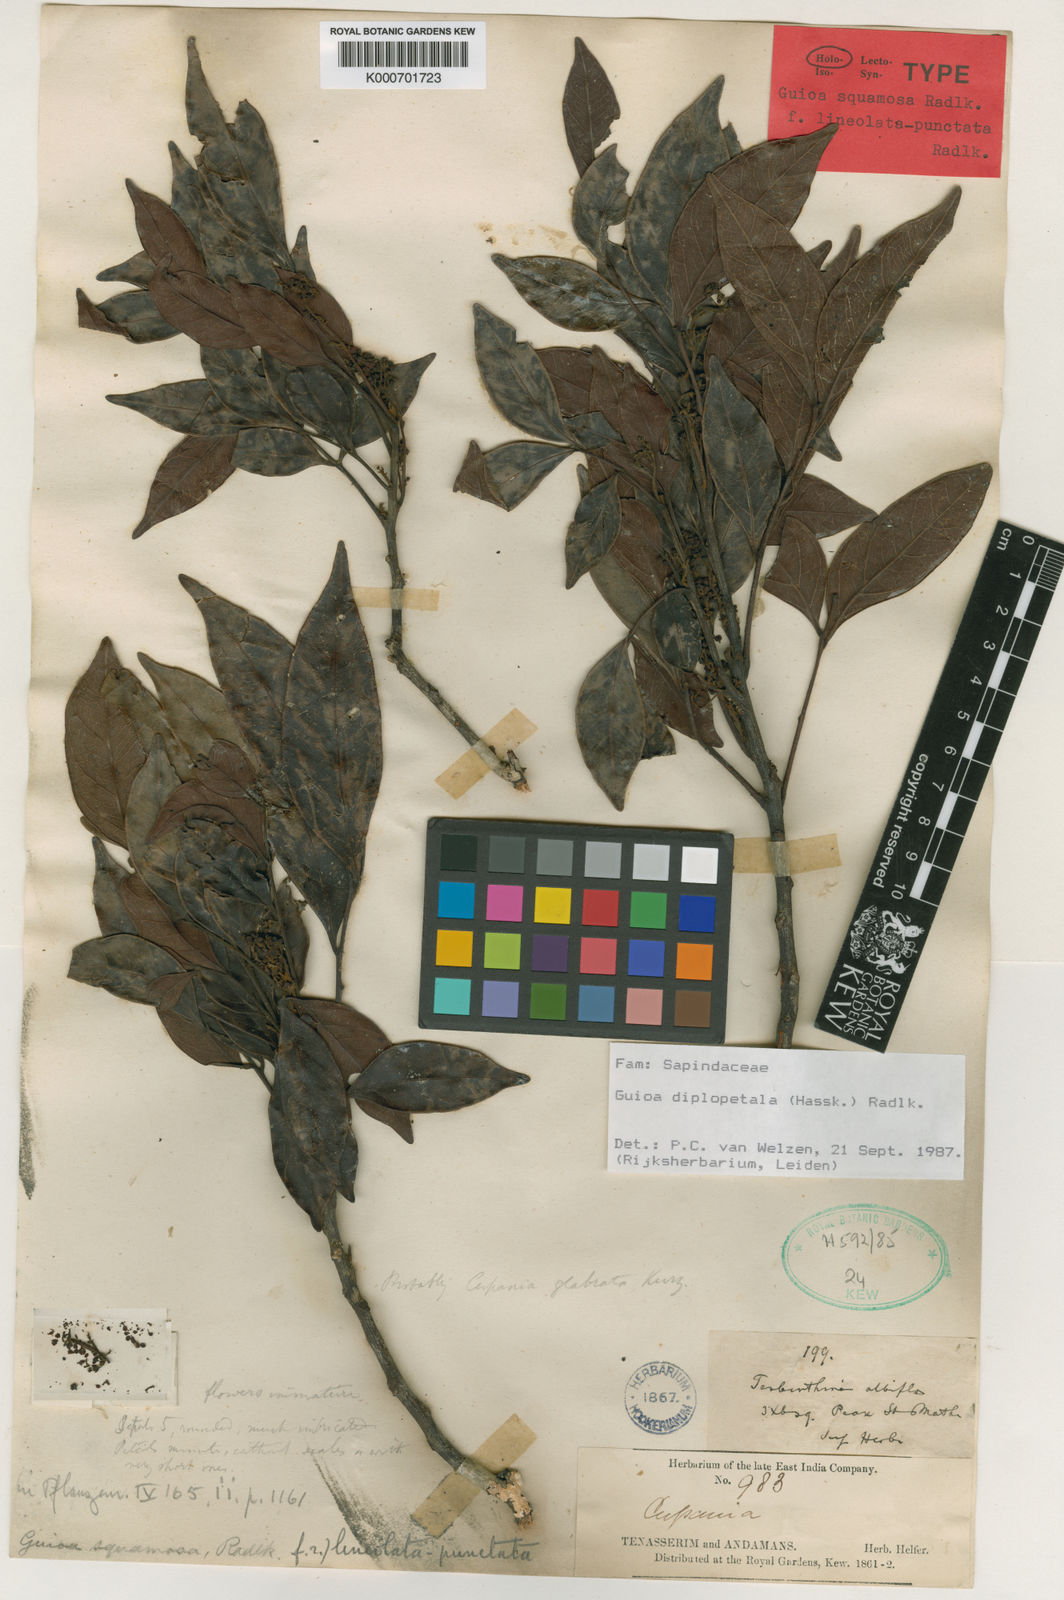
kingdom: Plantae
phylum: Tracheophyta
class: Magnoliopsida
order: Sapindales
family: Sapindaceae
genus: Guioa
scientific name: Guioa diplopetala
